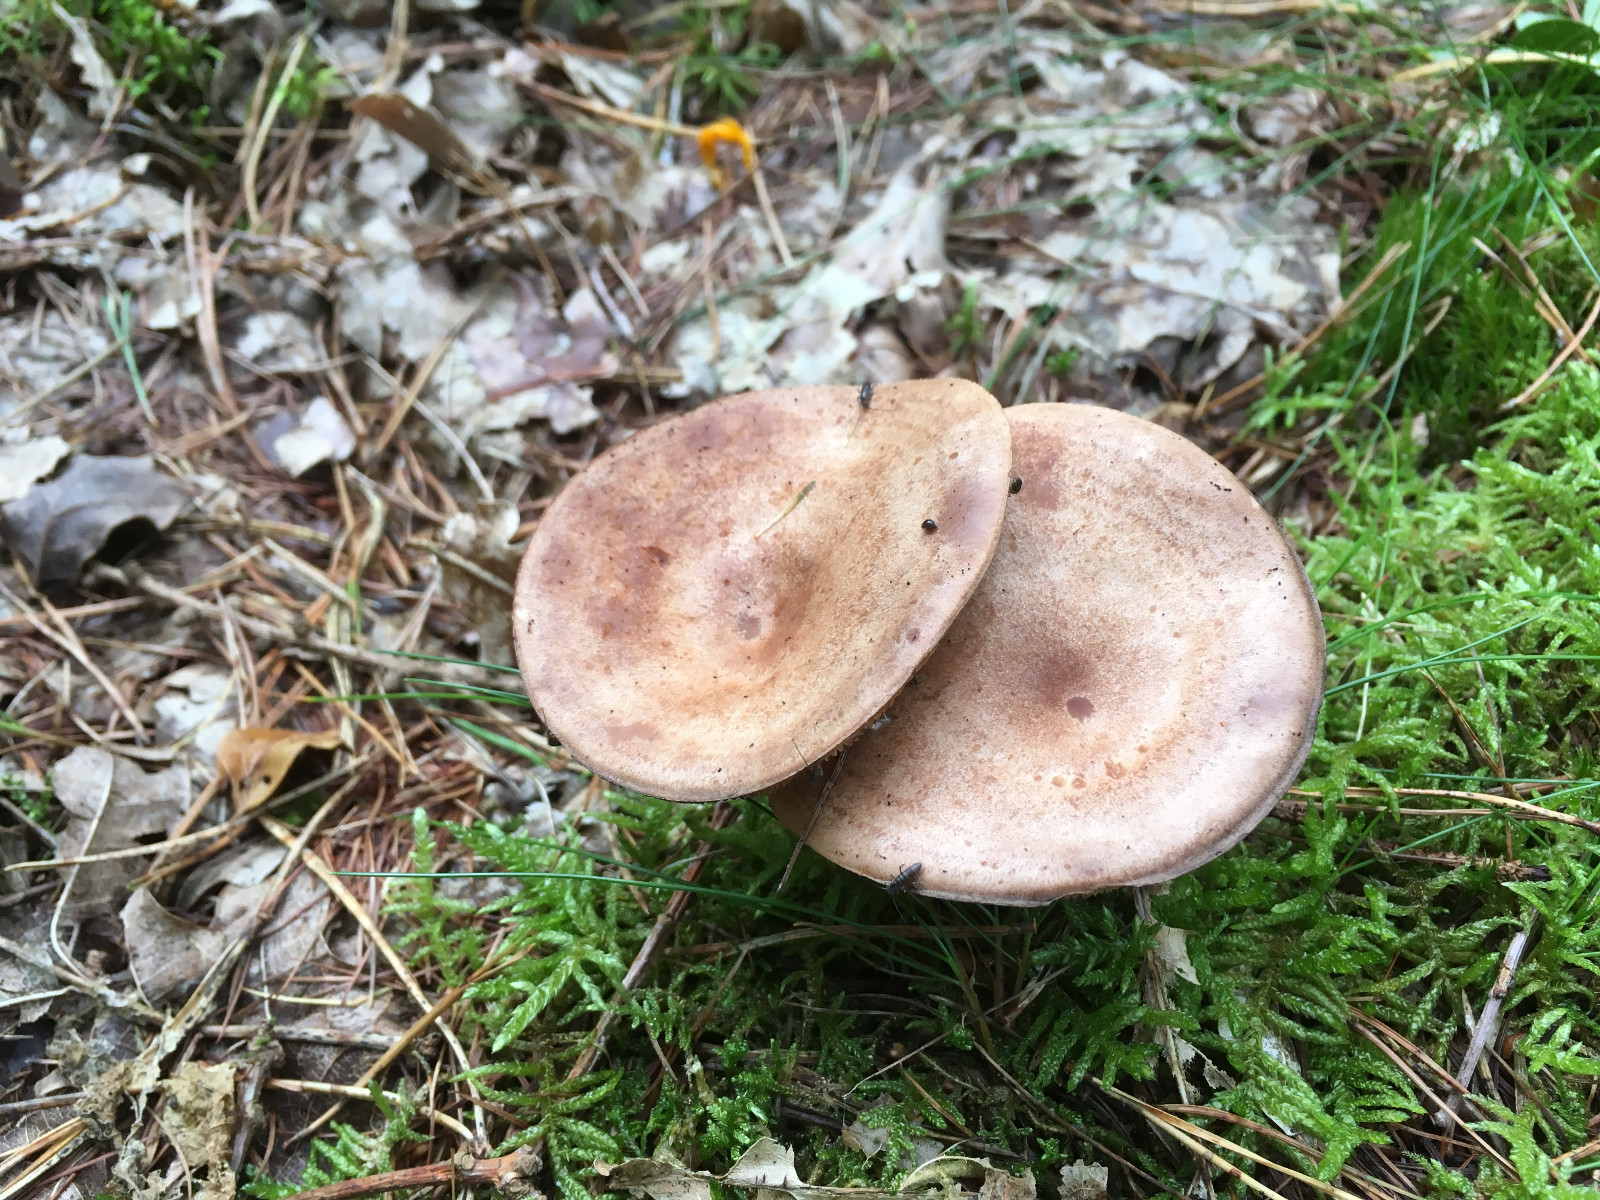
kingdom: Fungi
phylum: Basidiomycota
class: Agaricomycetes
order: Russulales
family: Russulaceae
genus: Lactarius
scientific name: Lactarius quietus
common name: ege-mælkehat
